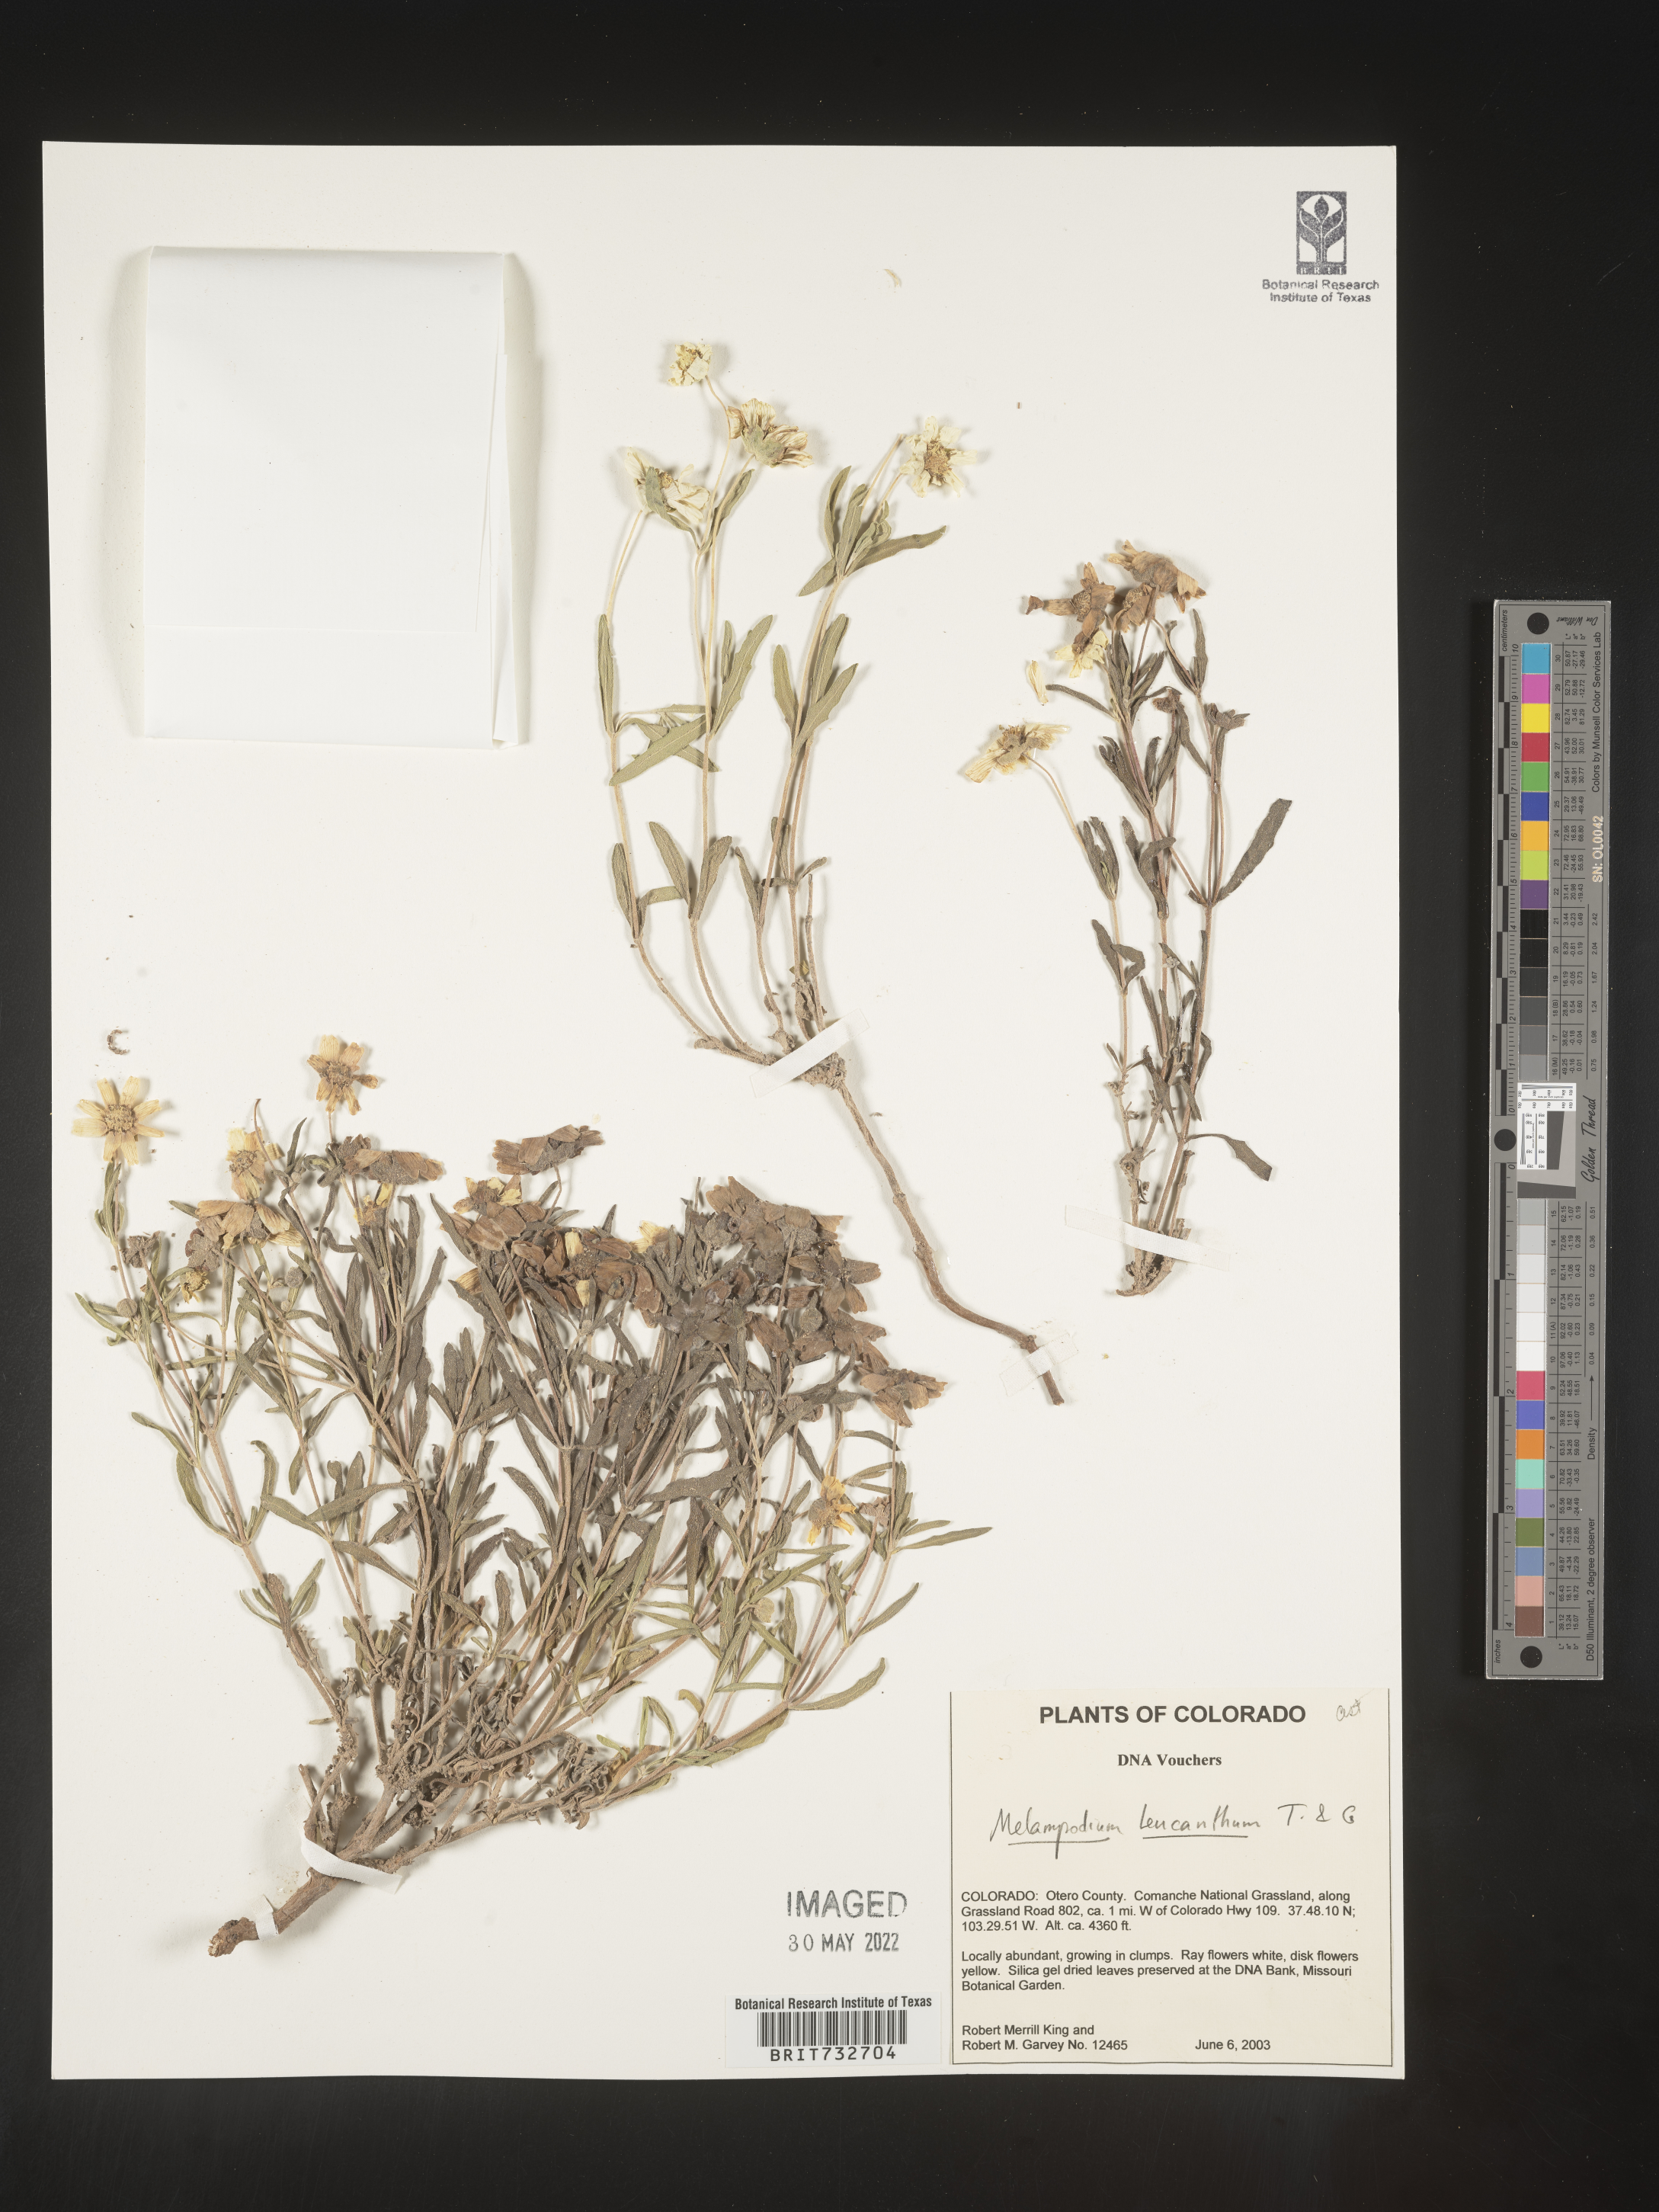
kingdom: Plantae
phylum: Tracheophyta
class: Magnoliopsida
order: Asterales
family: Asteraceae
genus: Melampodium
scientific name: Melampodium leucanthum
